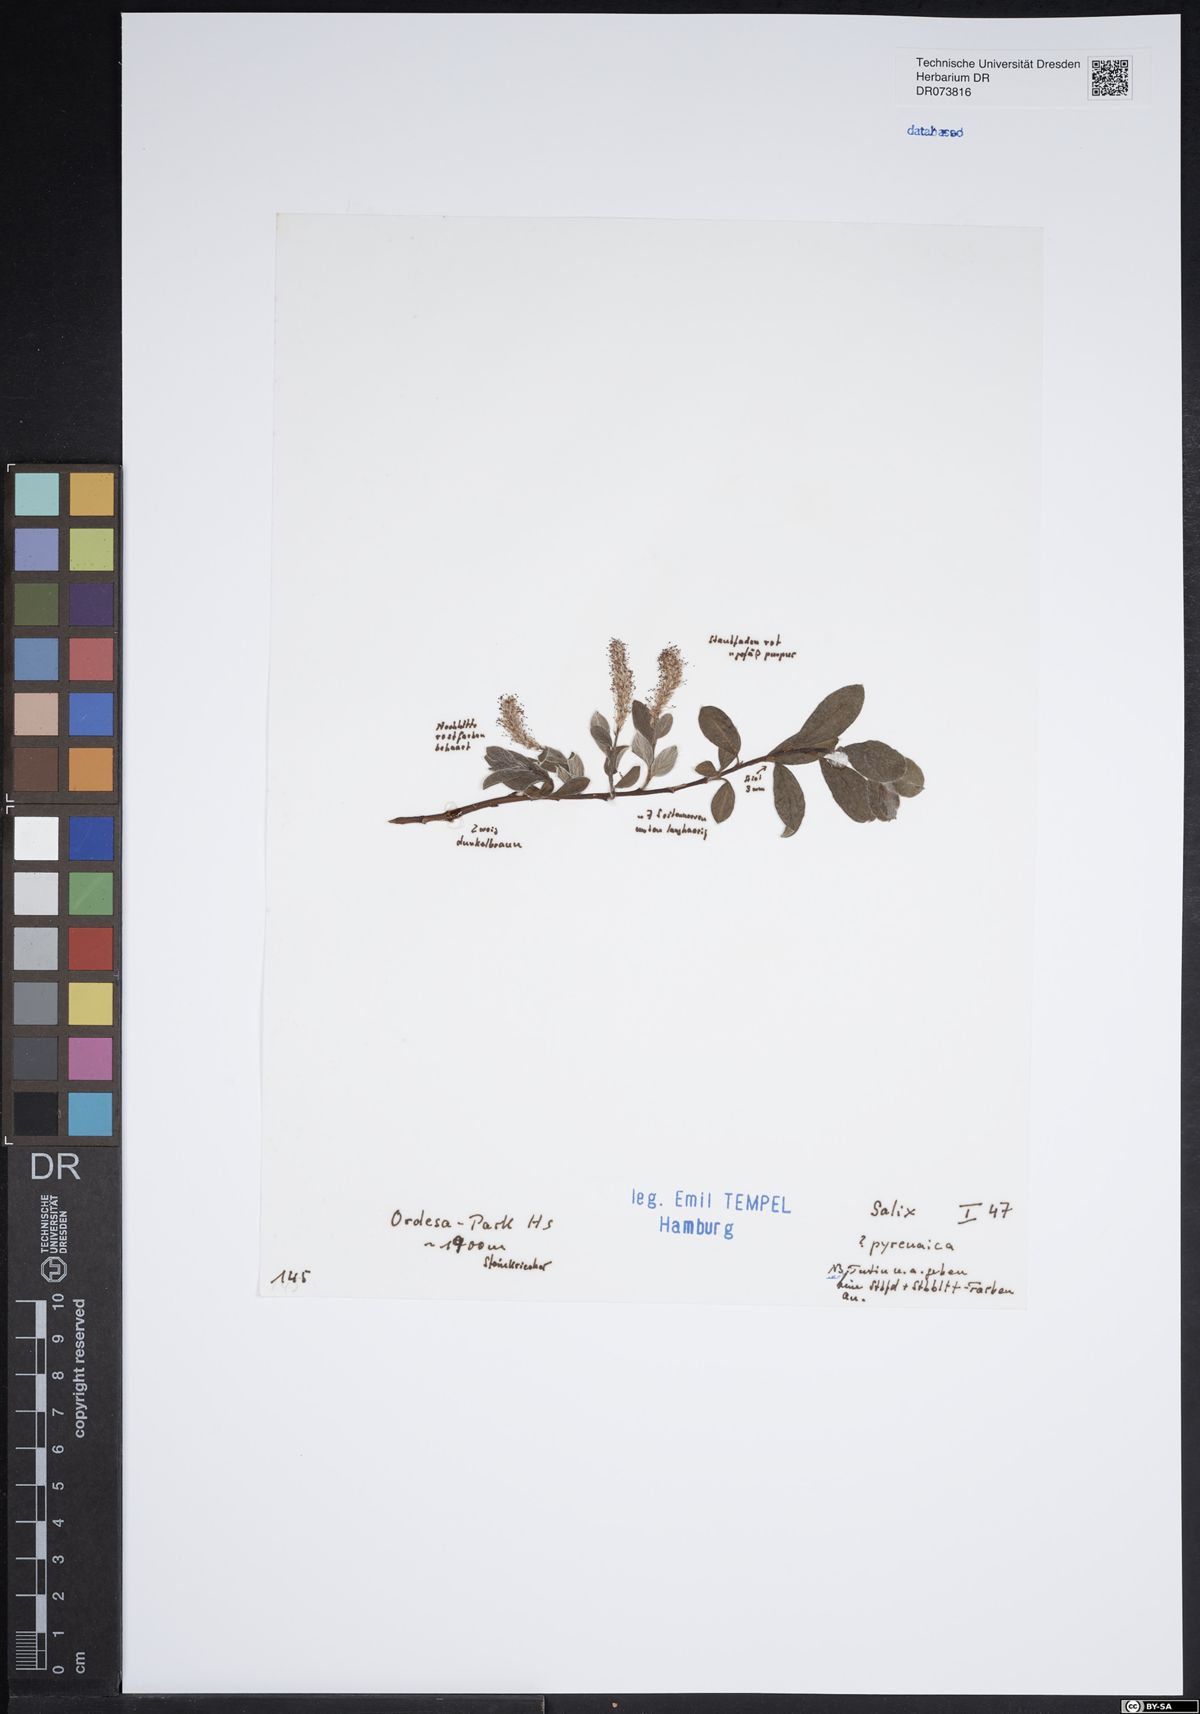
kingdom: Plantae
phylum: Tracheophyta
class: Magnoliopsida
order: Malpighiales
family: Salicaceae
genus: Salix
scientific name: Salix pyrenaica
